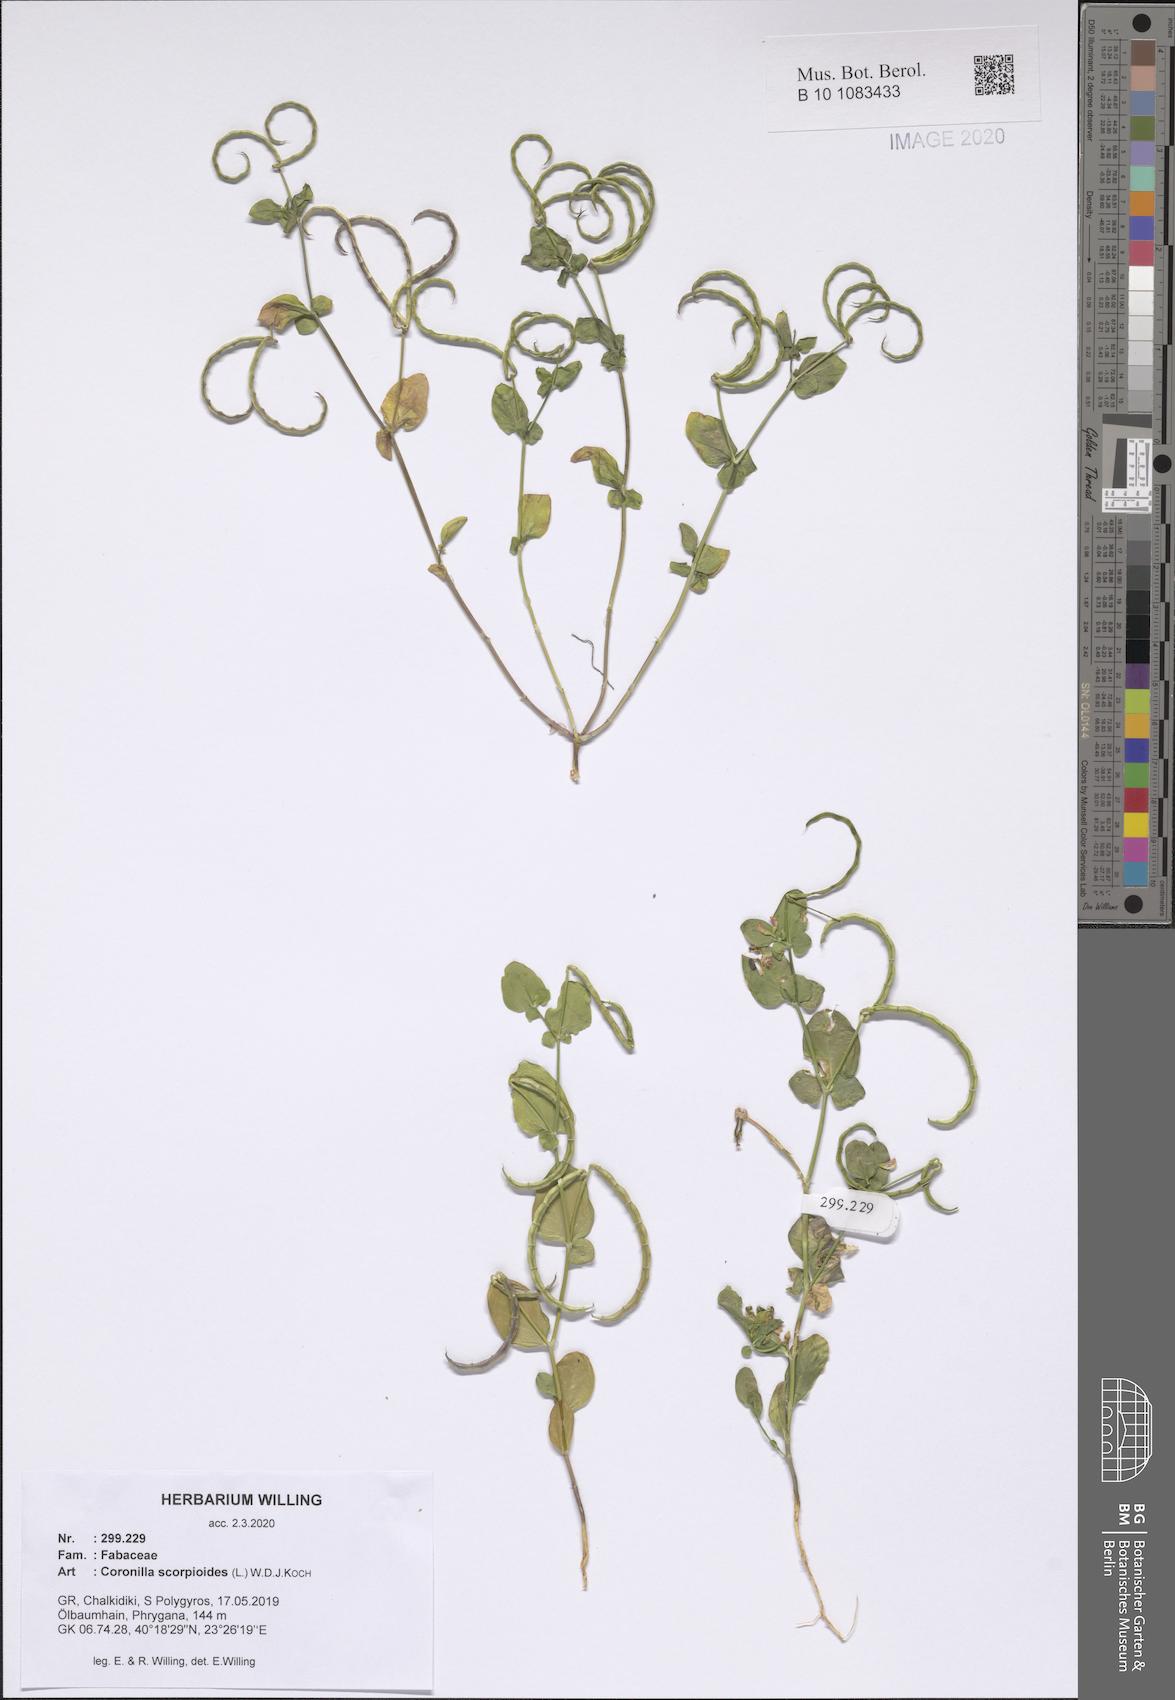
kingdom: Plantae
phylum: Tracheophyta
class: Magnoliopsida
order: Fabales
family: Fabaceae
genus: Coronilla
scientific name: Coronilla scorpioides
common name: Annual scorpion-vetch
